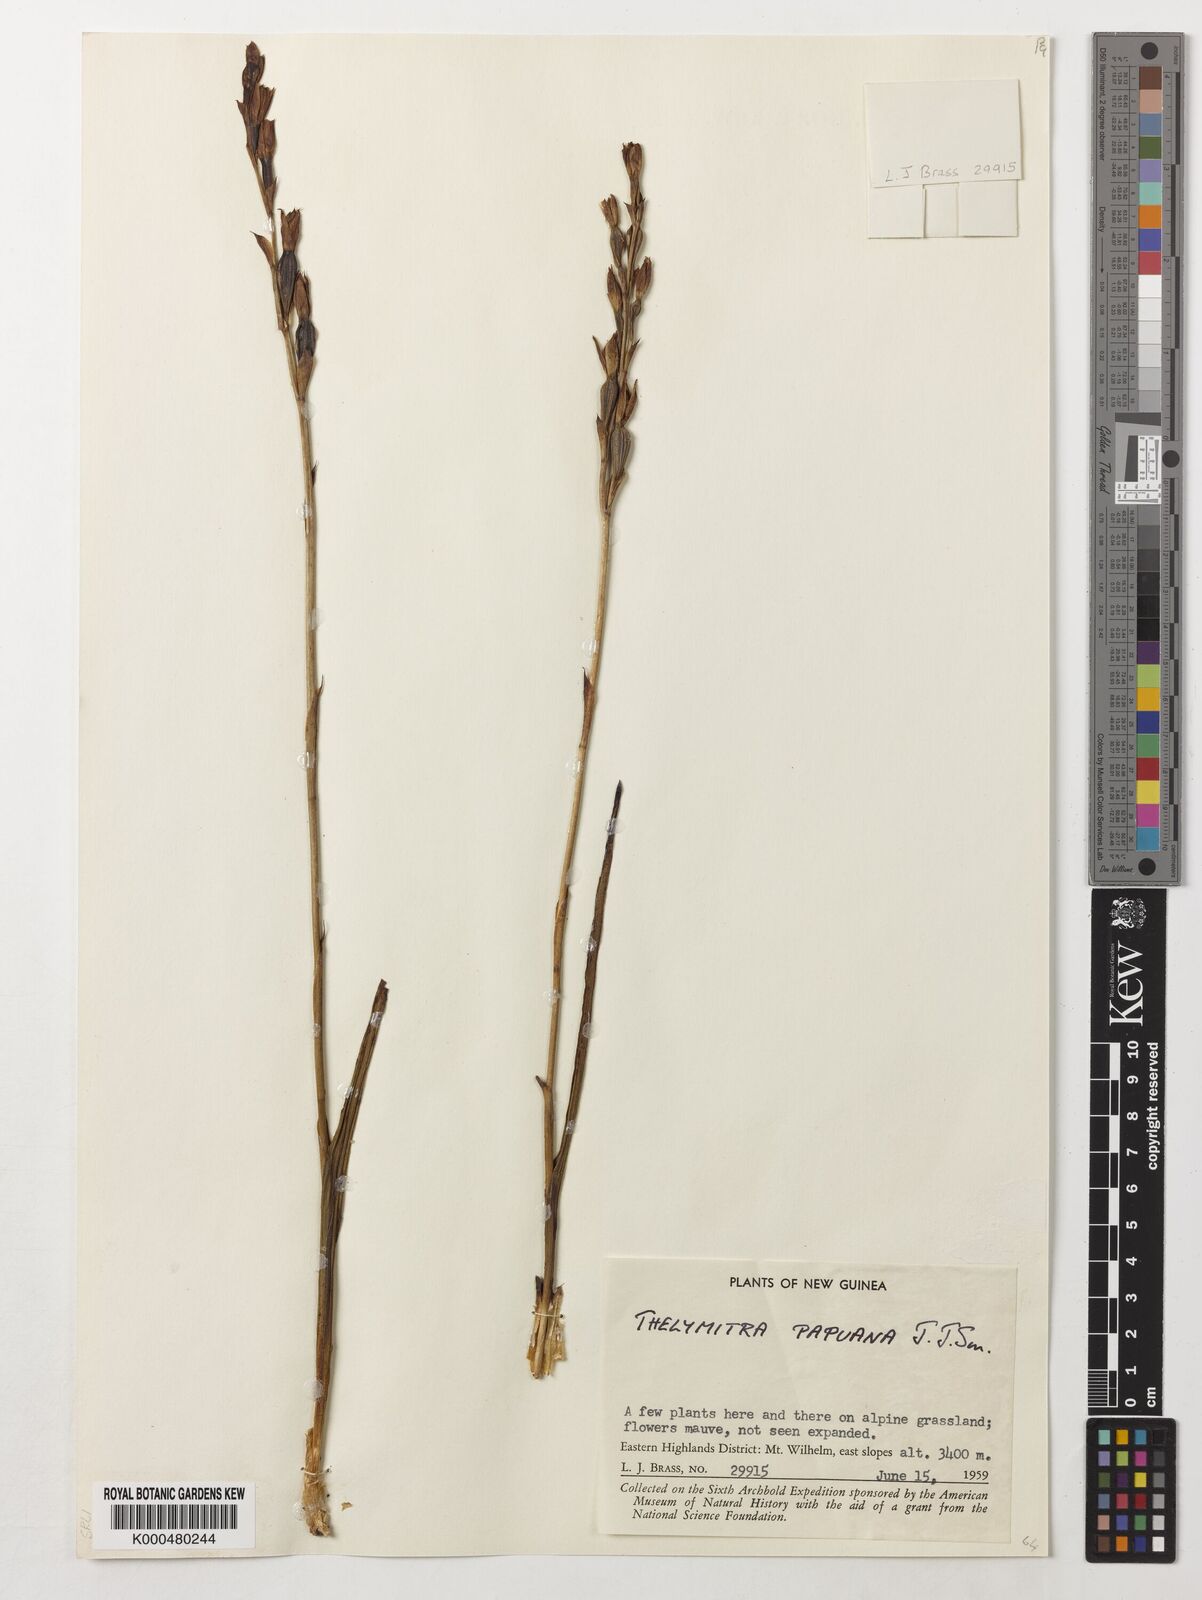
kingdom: Plantae
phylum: Tracheophyta
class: Liliopsida
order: Asparagales
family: Orchidaceae
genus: Thelymitra
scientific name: Thelymitra papuana
